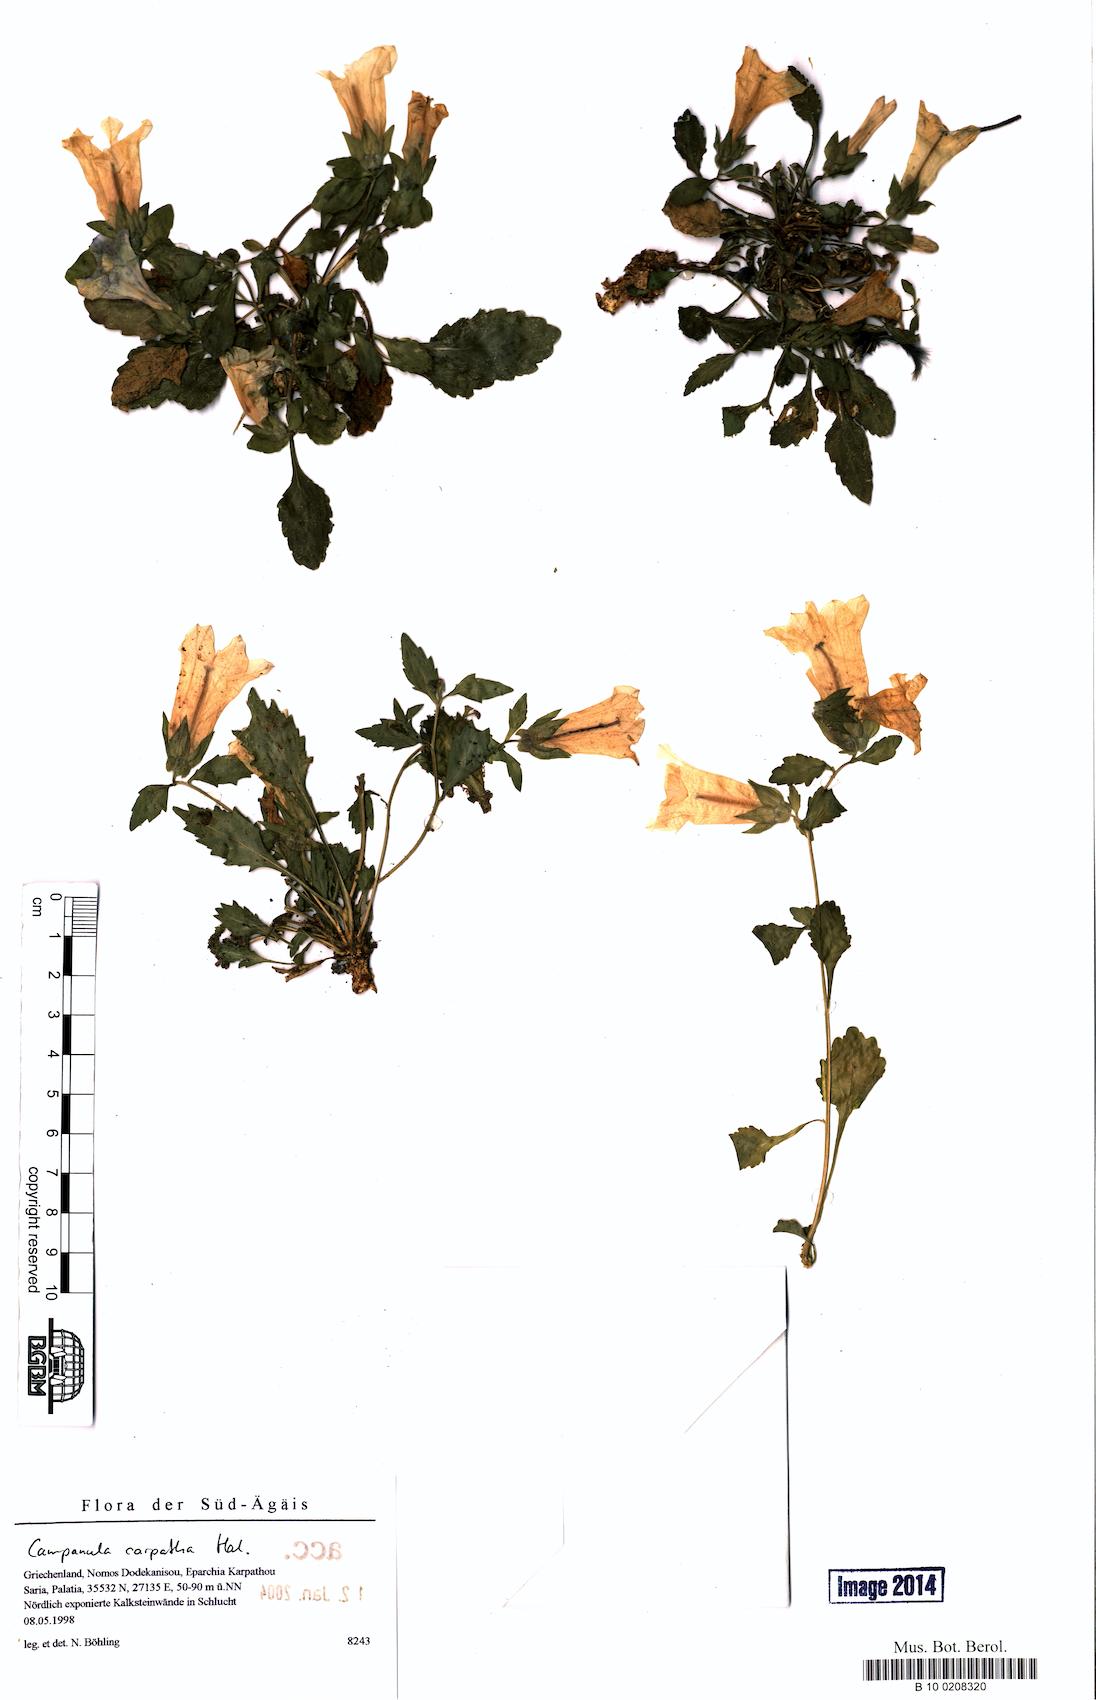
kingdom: Plantae
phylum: Tracheophyta
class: Magnoliopsida
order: Asterales
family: Campanulaceae
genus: Campanula
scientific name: Campanula carpatha
